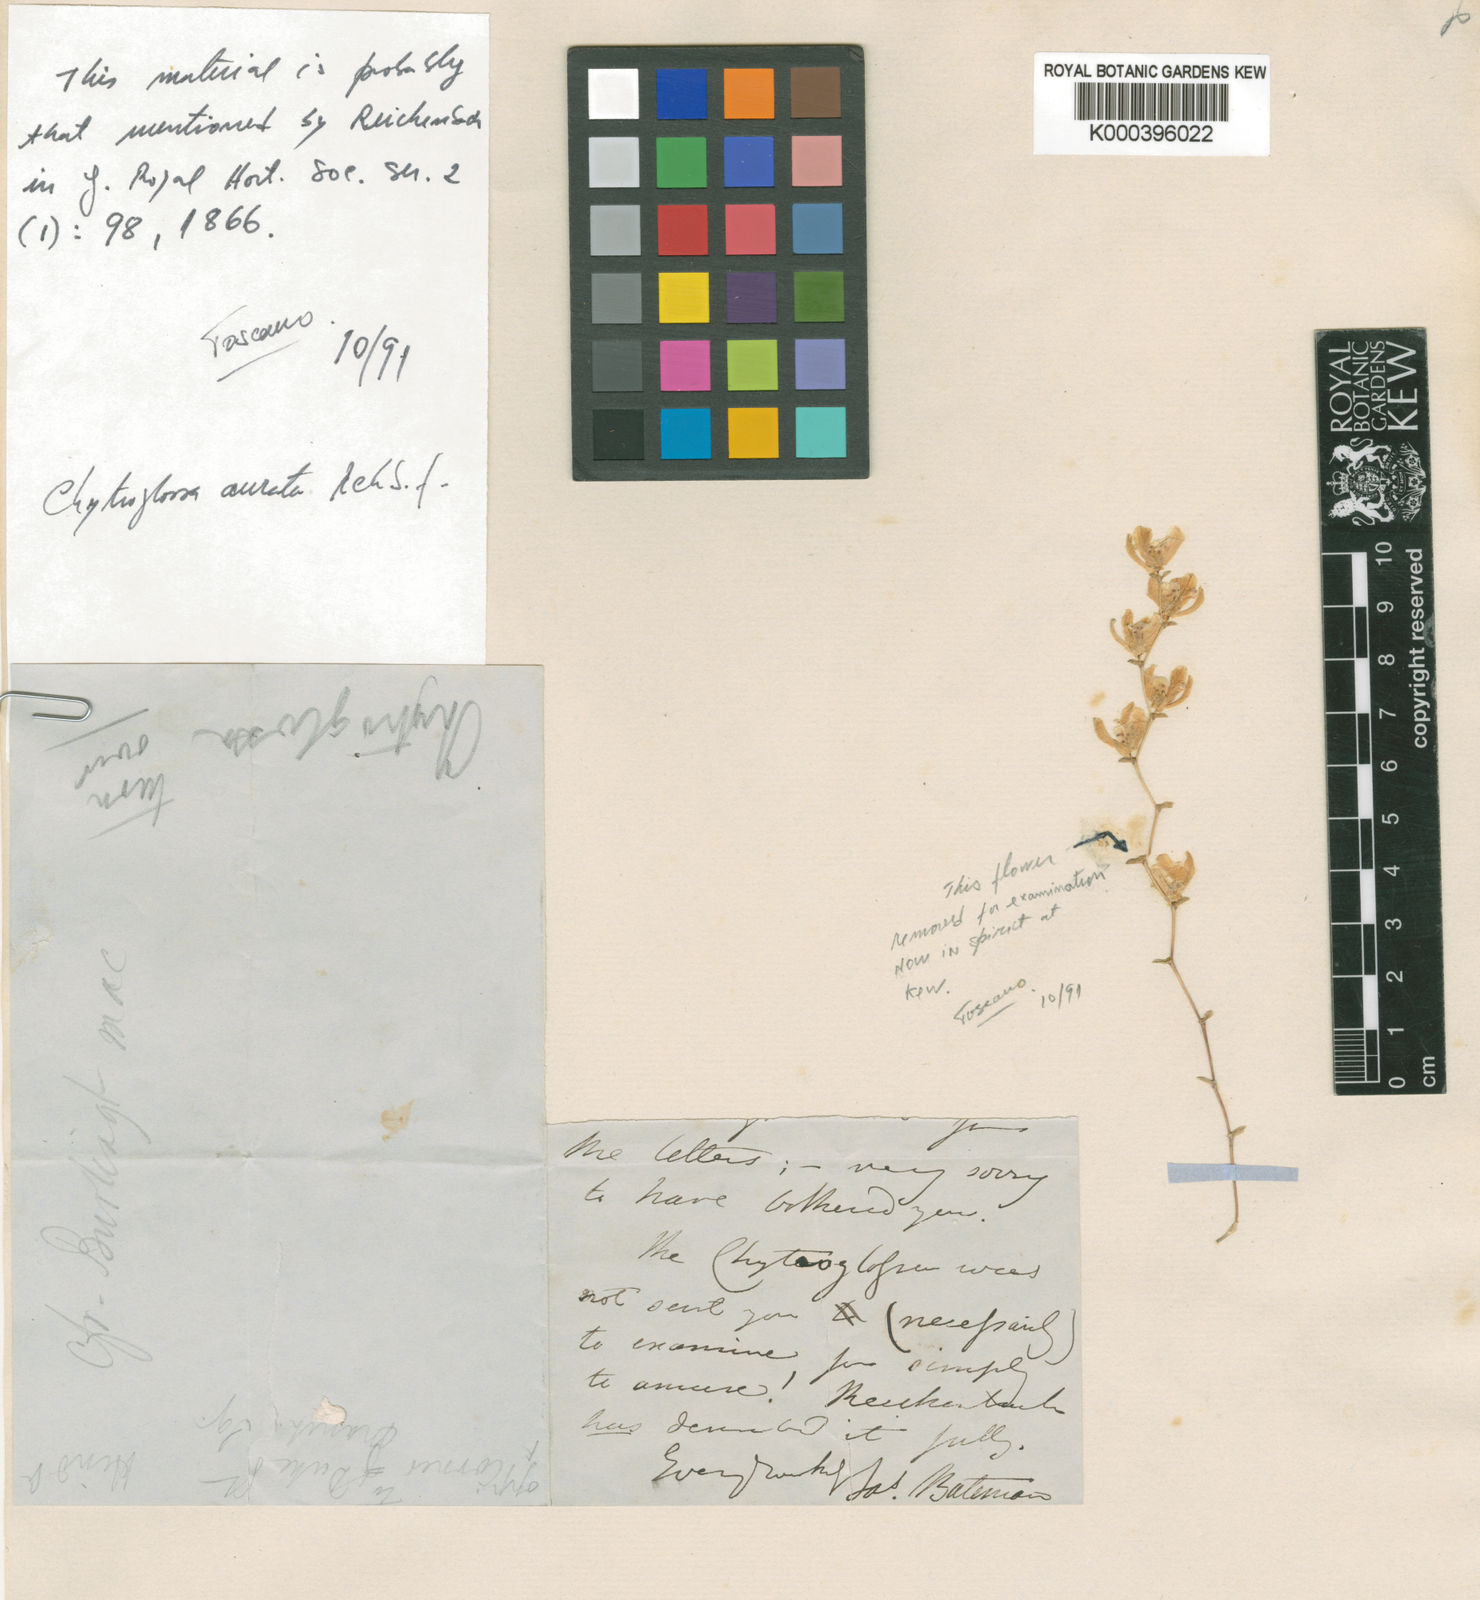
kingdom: Plantae
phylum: Tracheophyta
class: Liliopsida
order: Asparagales
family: Orchidaceae
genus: Chytroglossa
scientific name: Chytroglossa aurata
